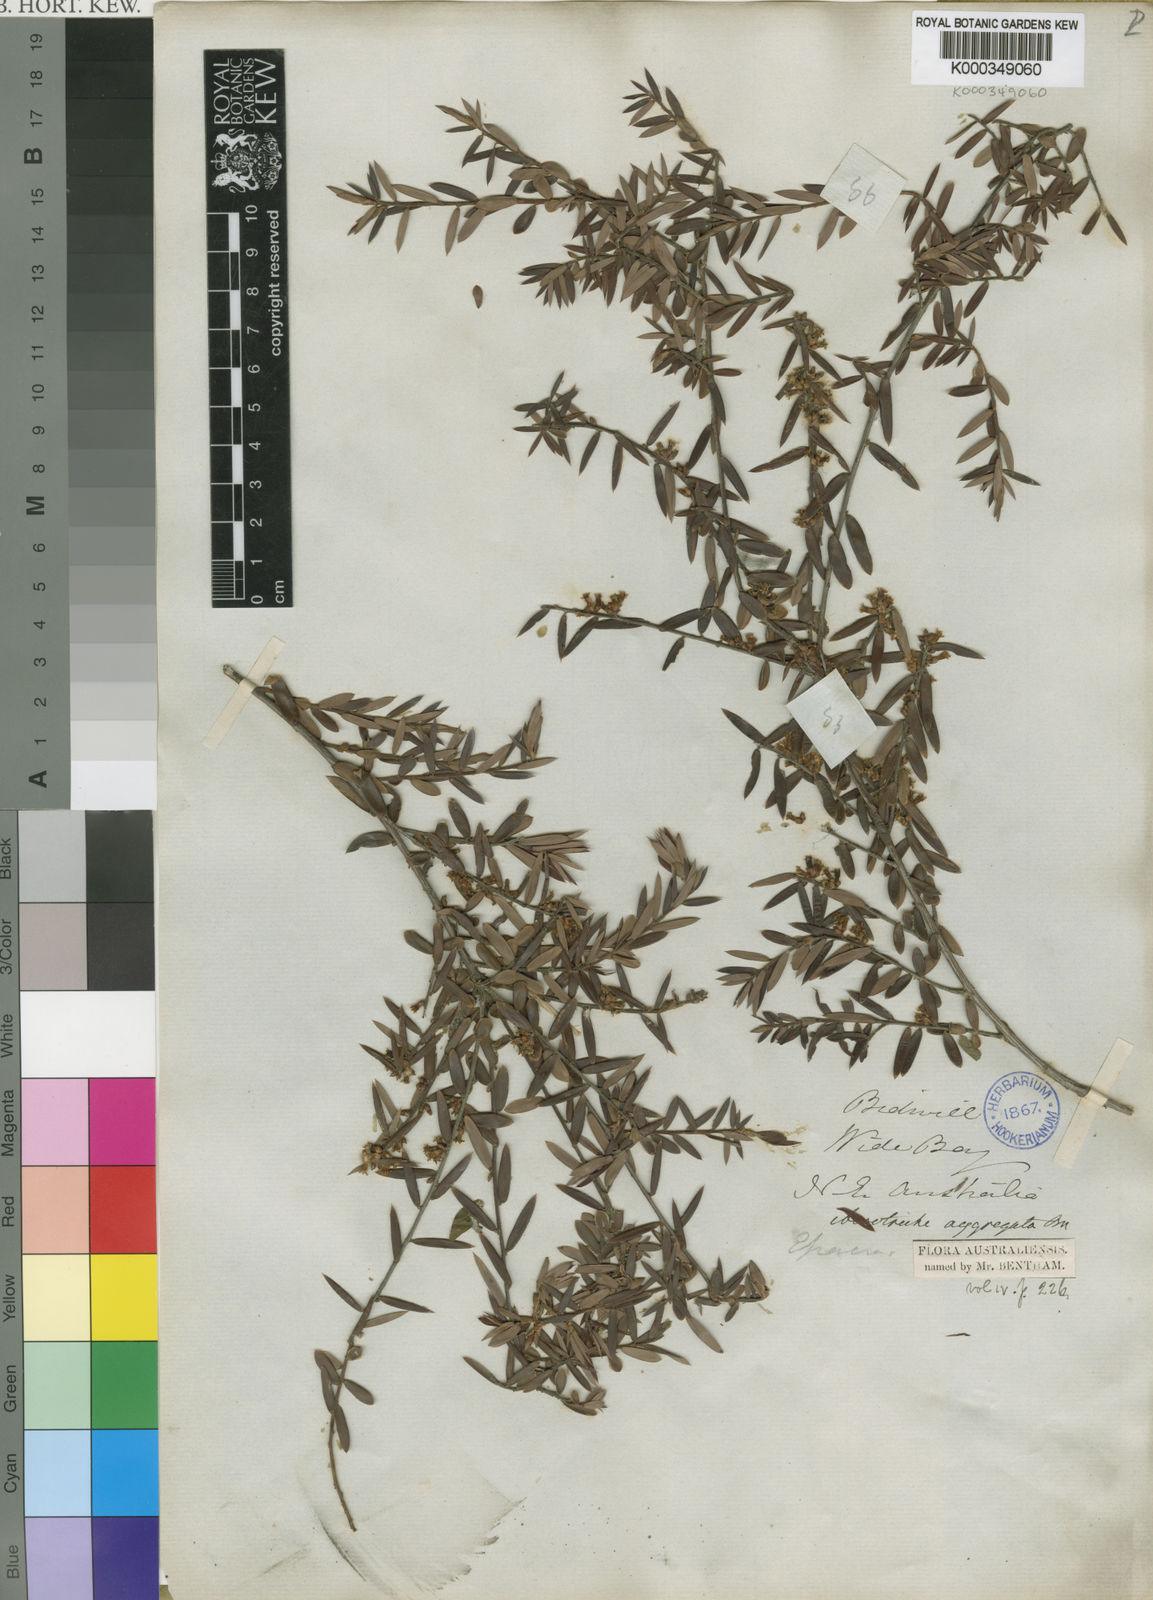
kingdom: Plantae
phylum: Tracheophyta
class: Magnoliopsida
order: Ericales
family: Ericaceae
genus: Acrotriche
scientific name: Acrotriche aggregata
